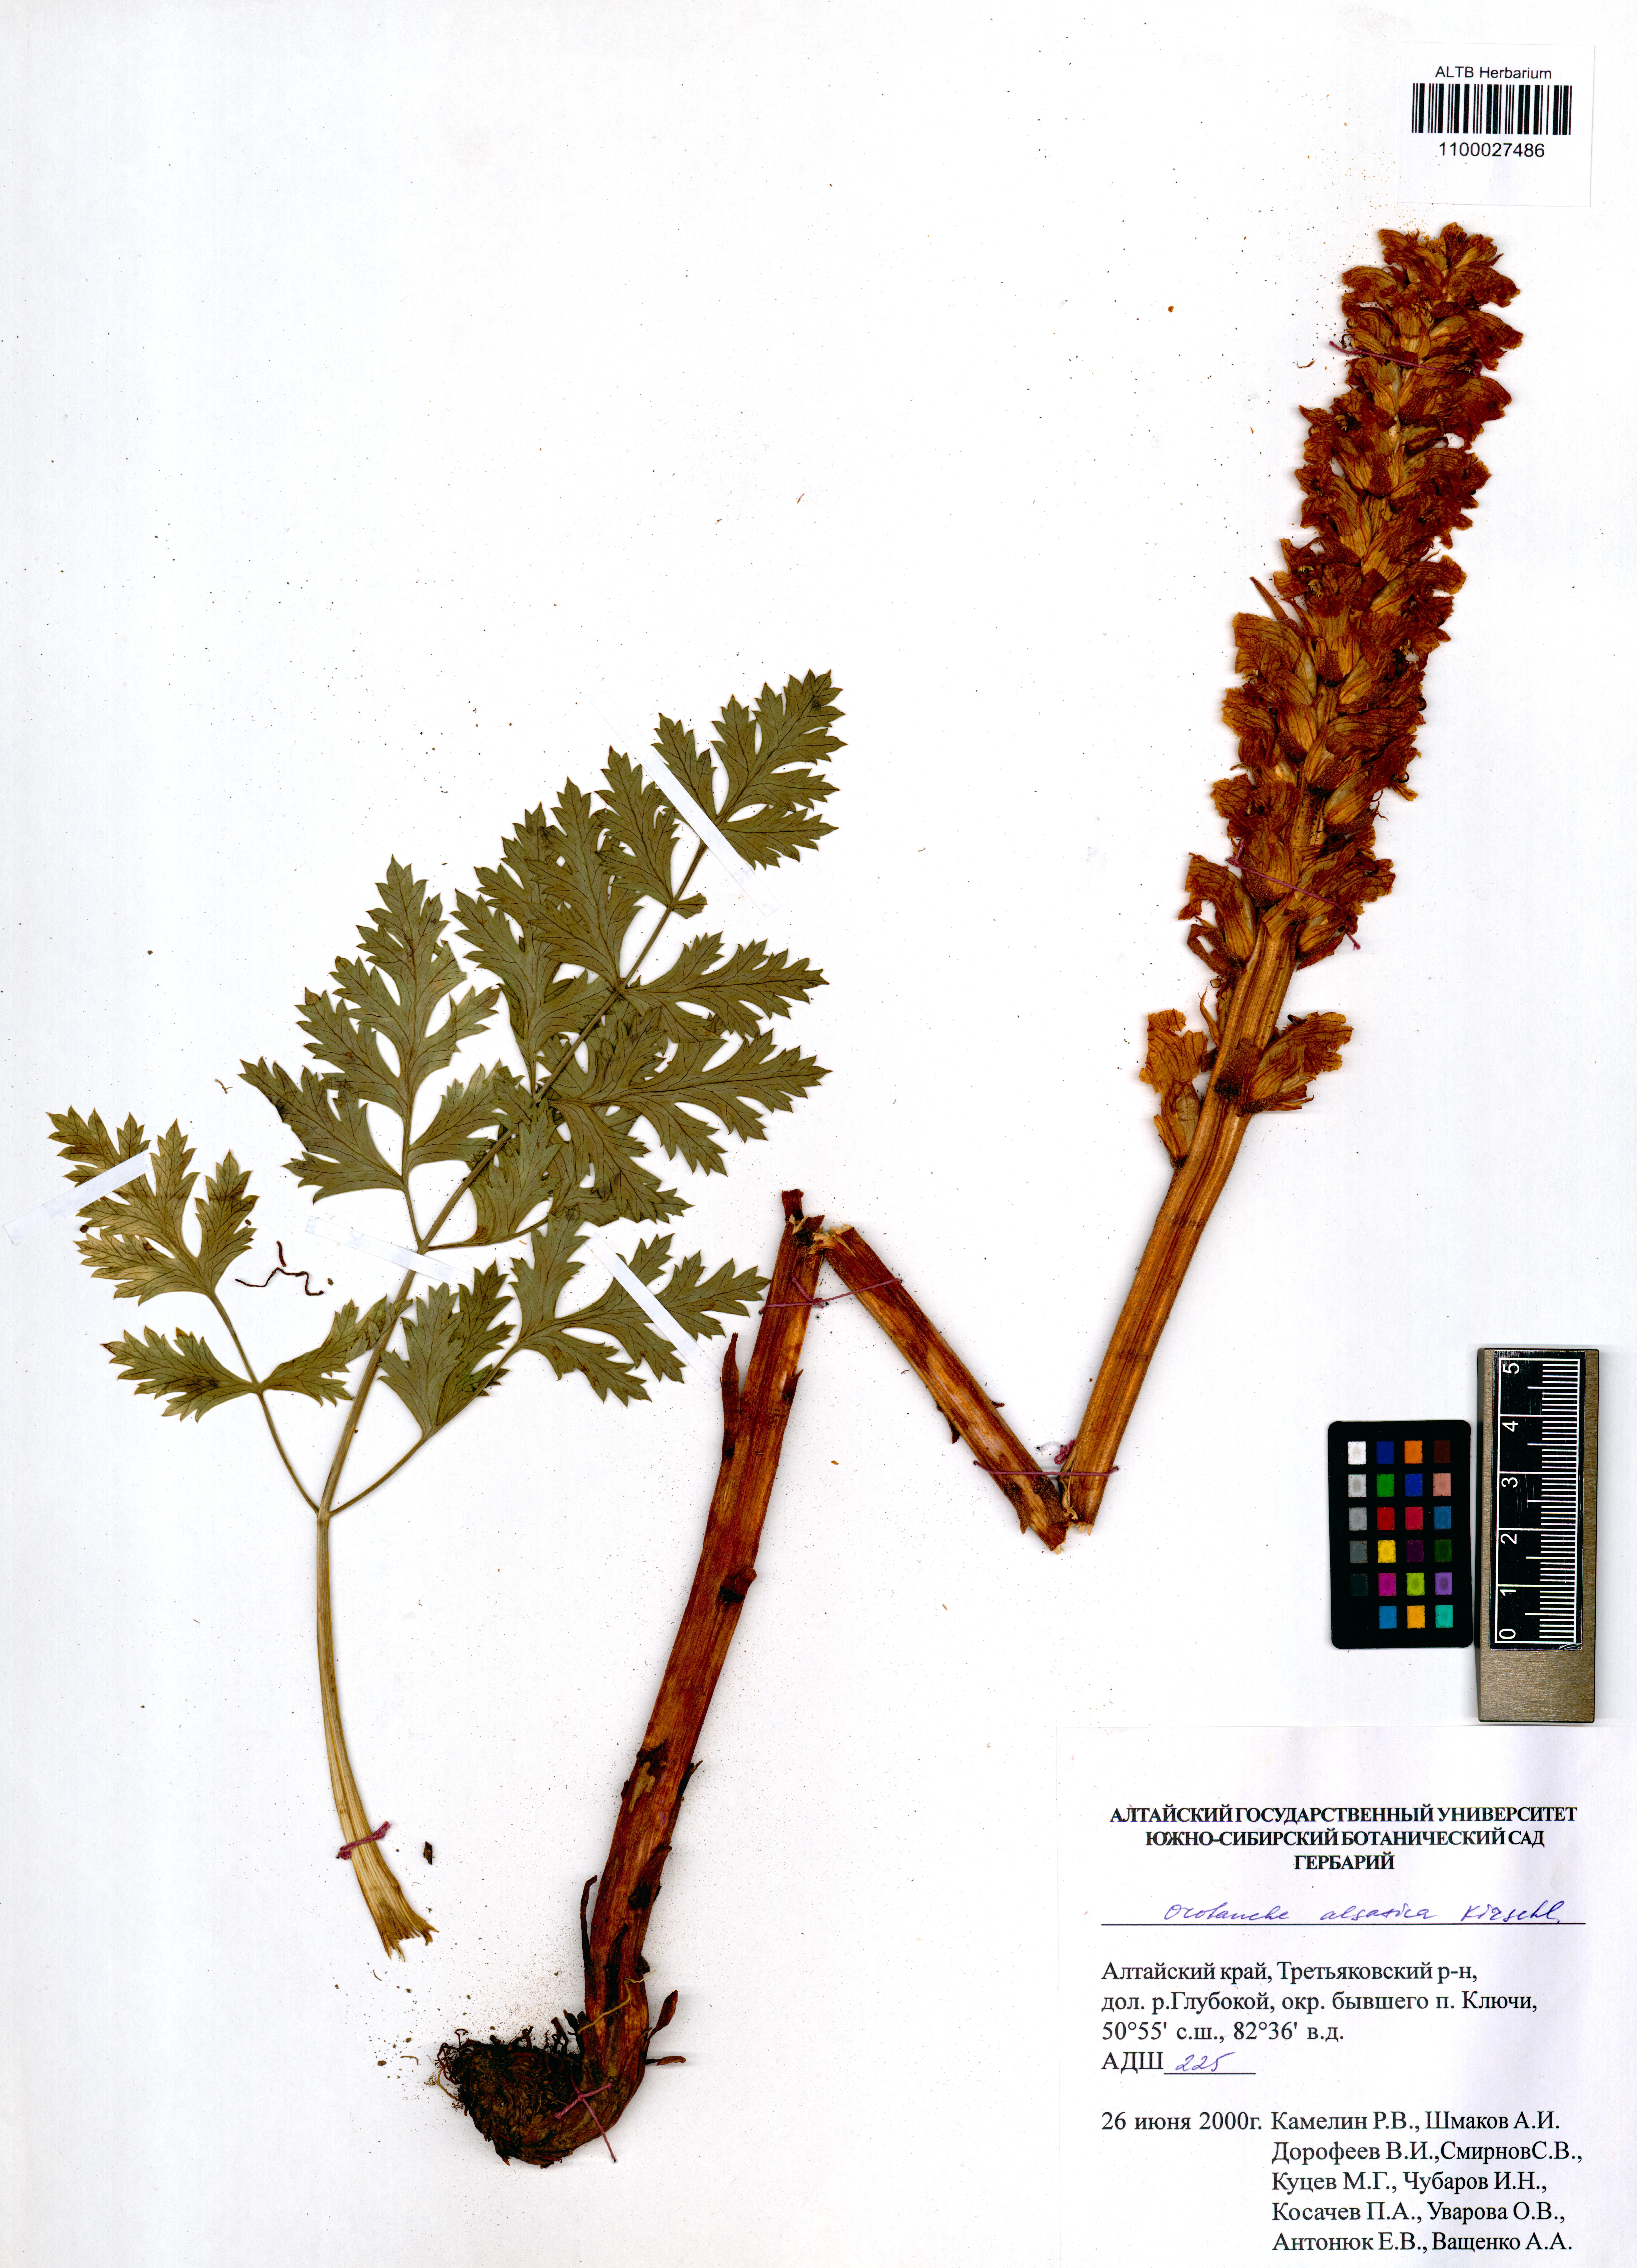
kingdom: Plantae
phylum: Tracheophyta
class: Magnoliopsida
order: Lamiales
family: Orobanchaceae
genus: Orobanche
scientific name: Orobanche alsatica
